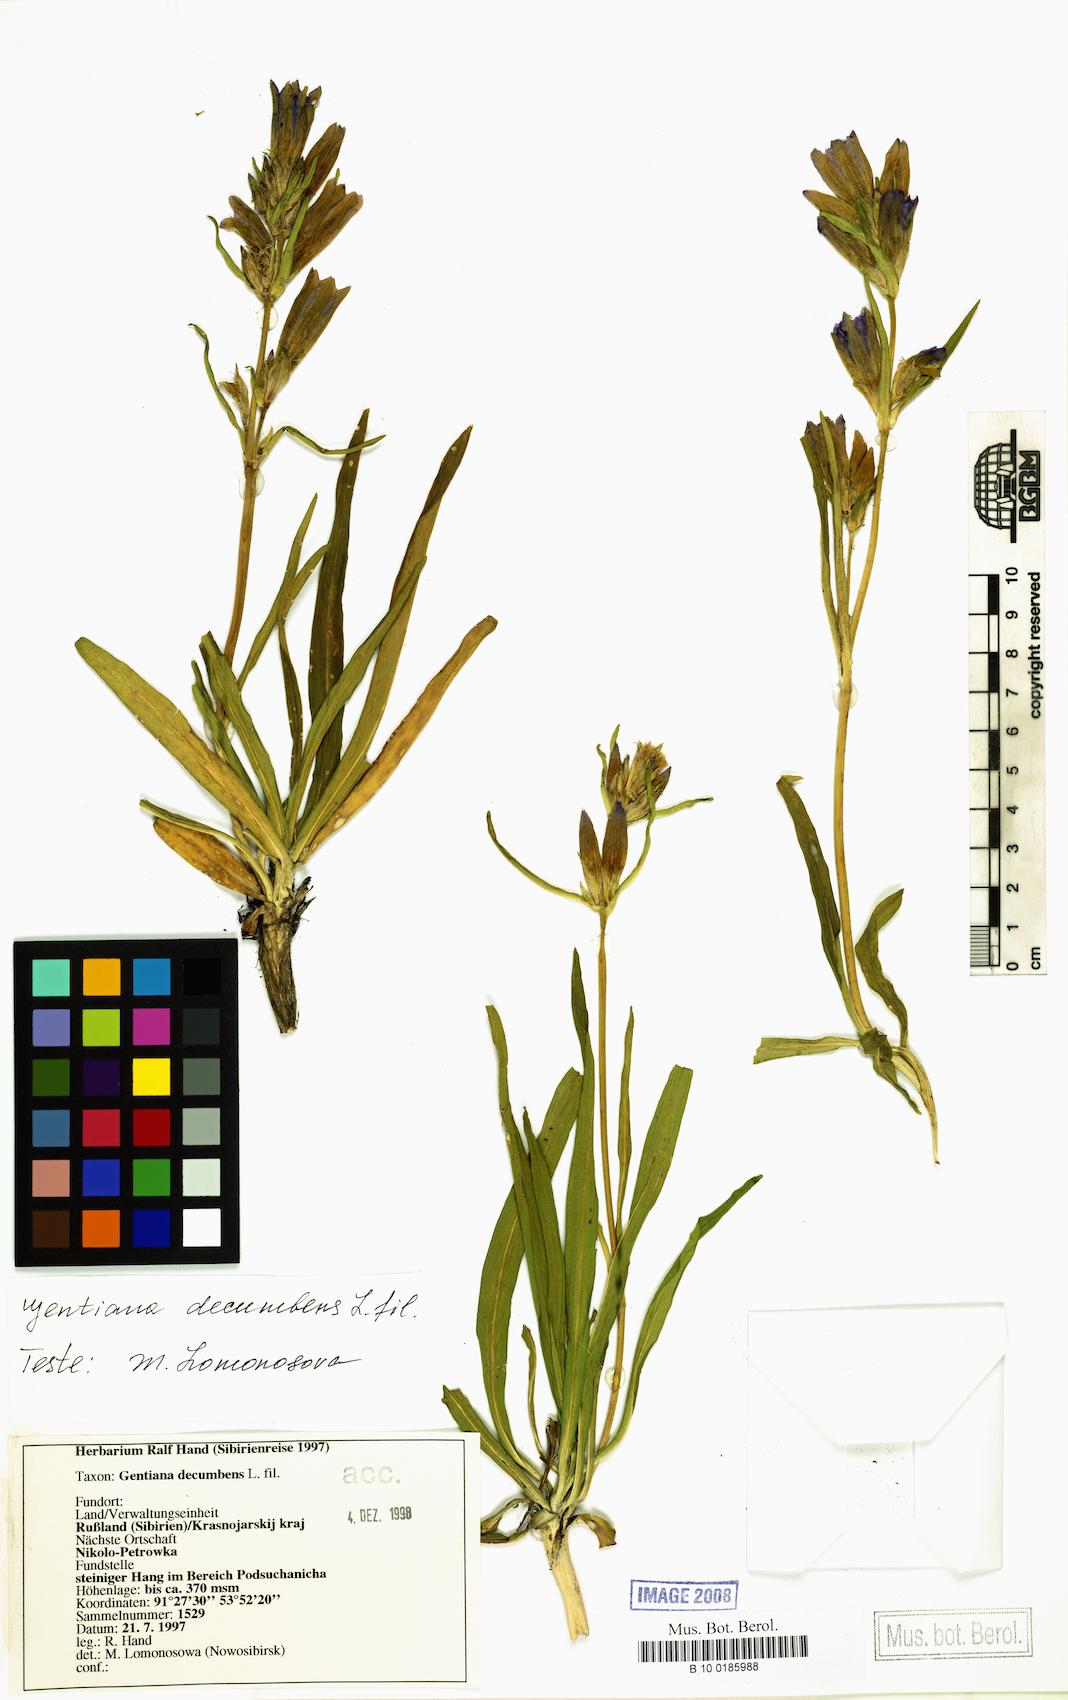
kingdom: Plantae
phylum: Tracheophyta
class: Magnoliopsida
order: Gentianales
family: Gentianaceae
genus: Gentiana
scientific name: Gentiana decumbens
